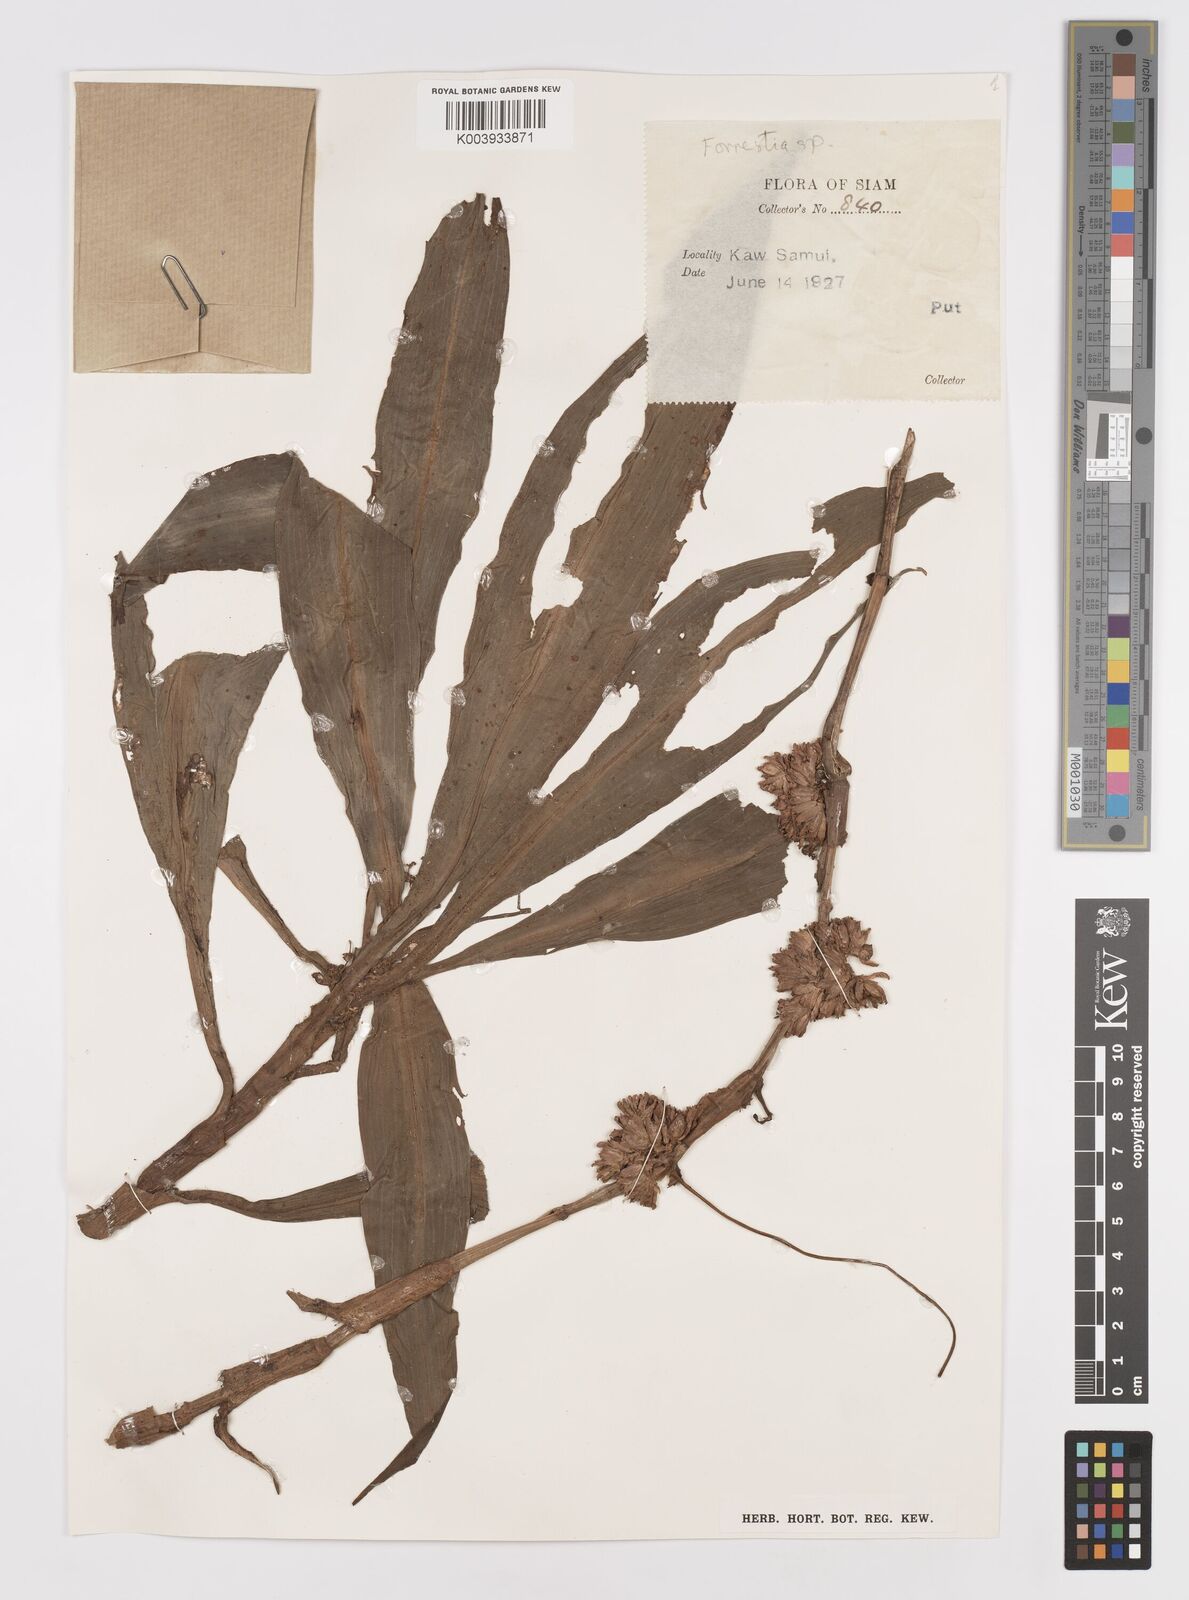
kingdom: Plantae
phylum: Tracheophyta
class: Liliopsida
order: Commelinales
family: Commelinaceae
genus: Amischotolype
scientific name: Amischotolype
